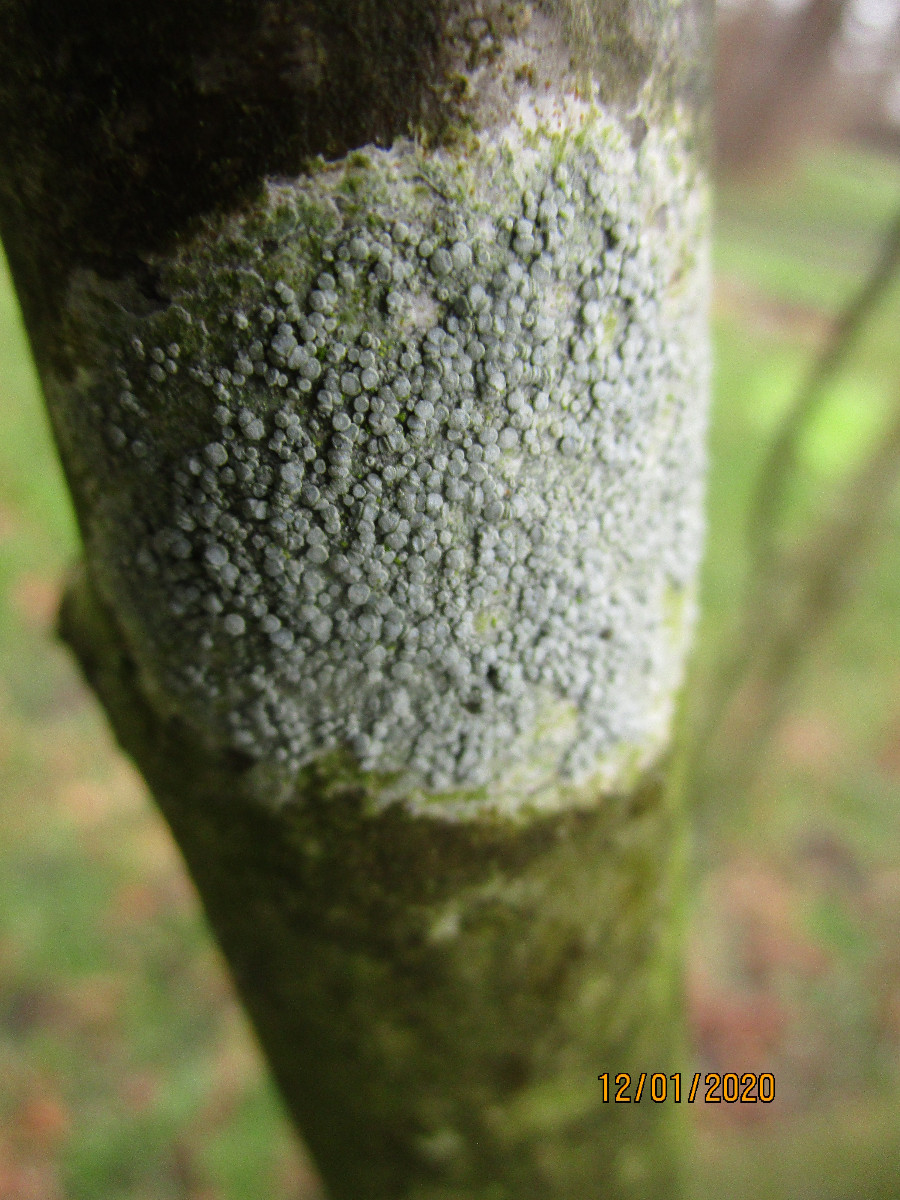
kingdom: Fungi
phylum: Ascomycota
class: Lecanoromycetes
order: Lecanorales
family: Lecanoraceae
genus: Glaucomaria
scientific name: Glaucomaria carpinea
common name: hviddugget kantskivelav
